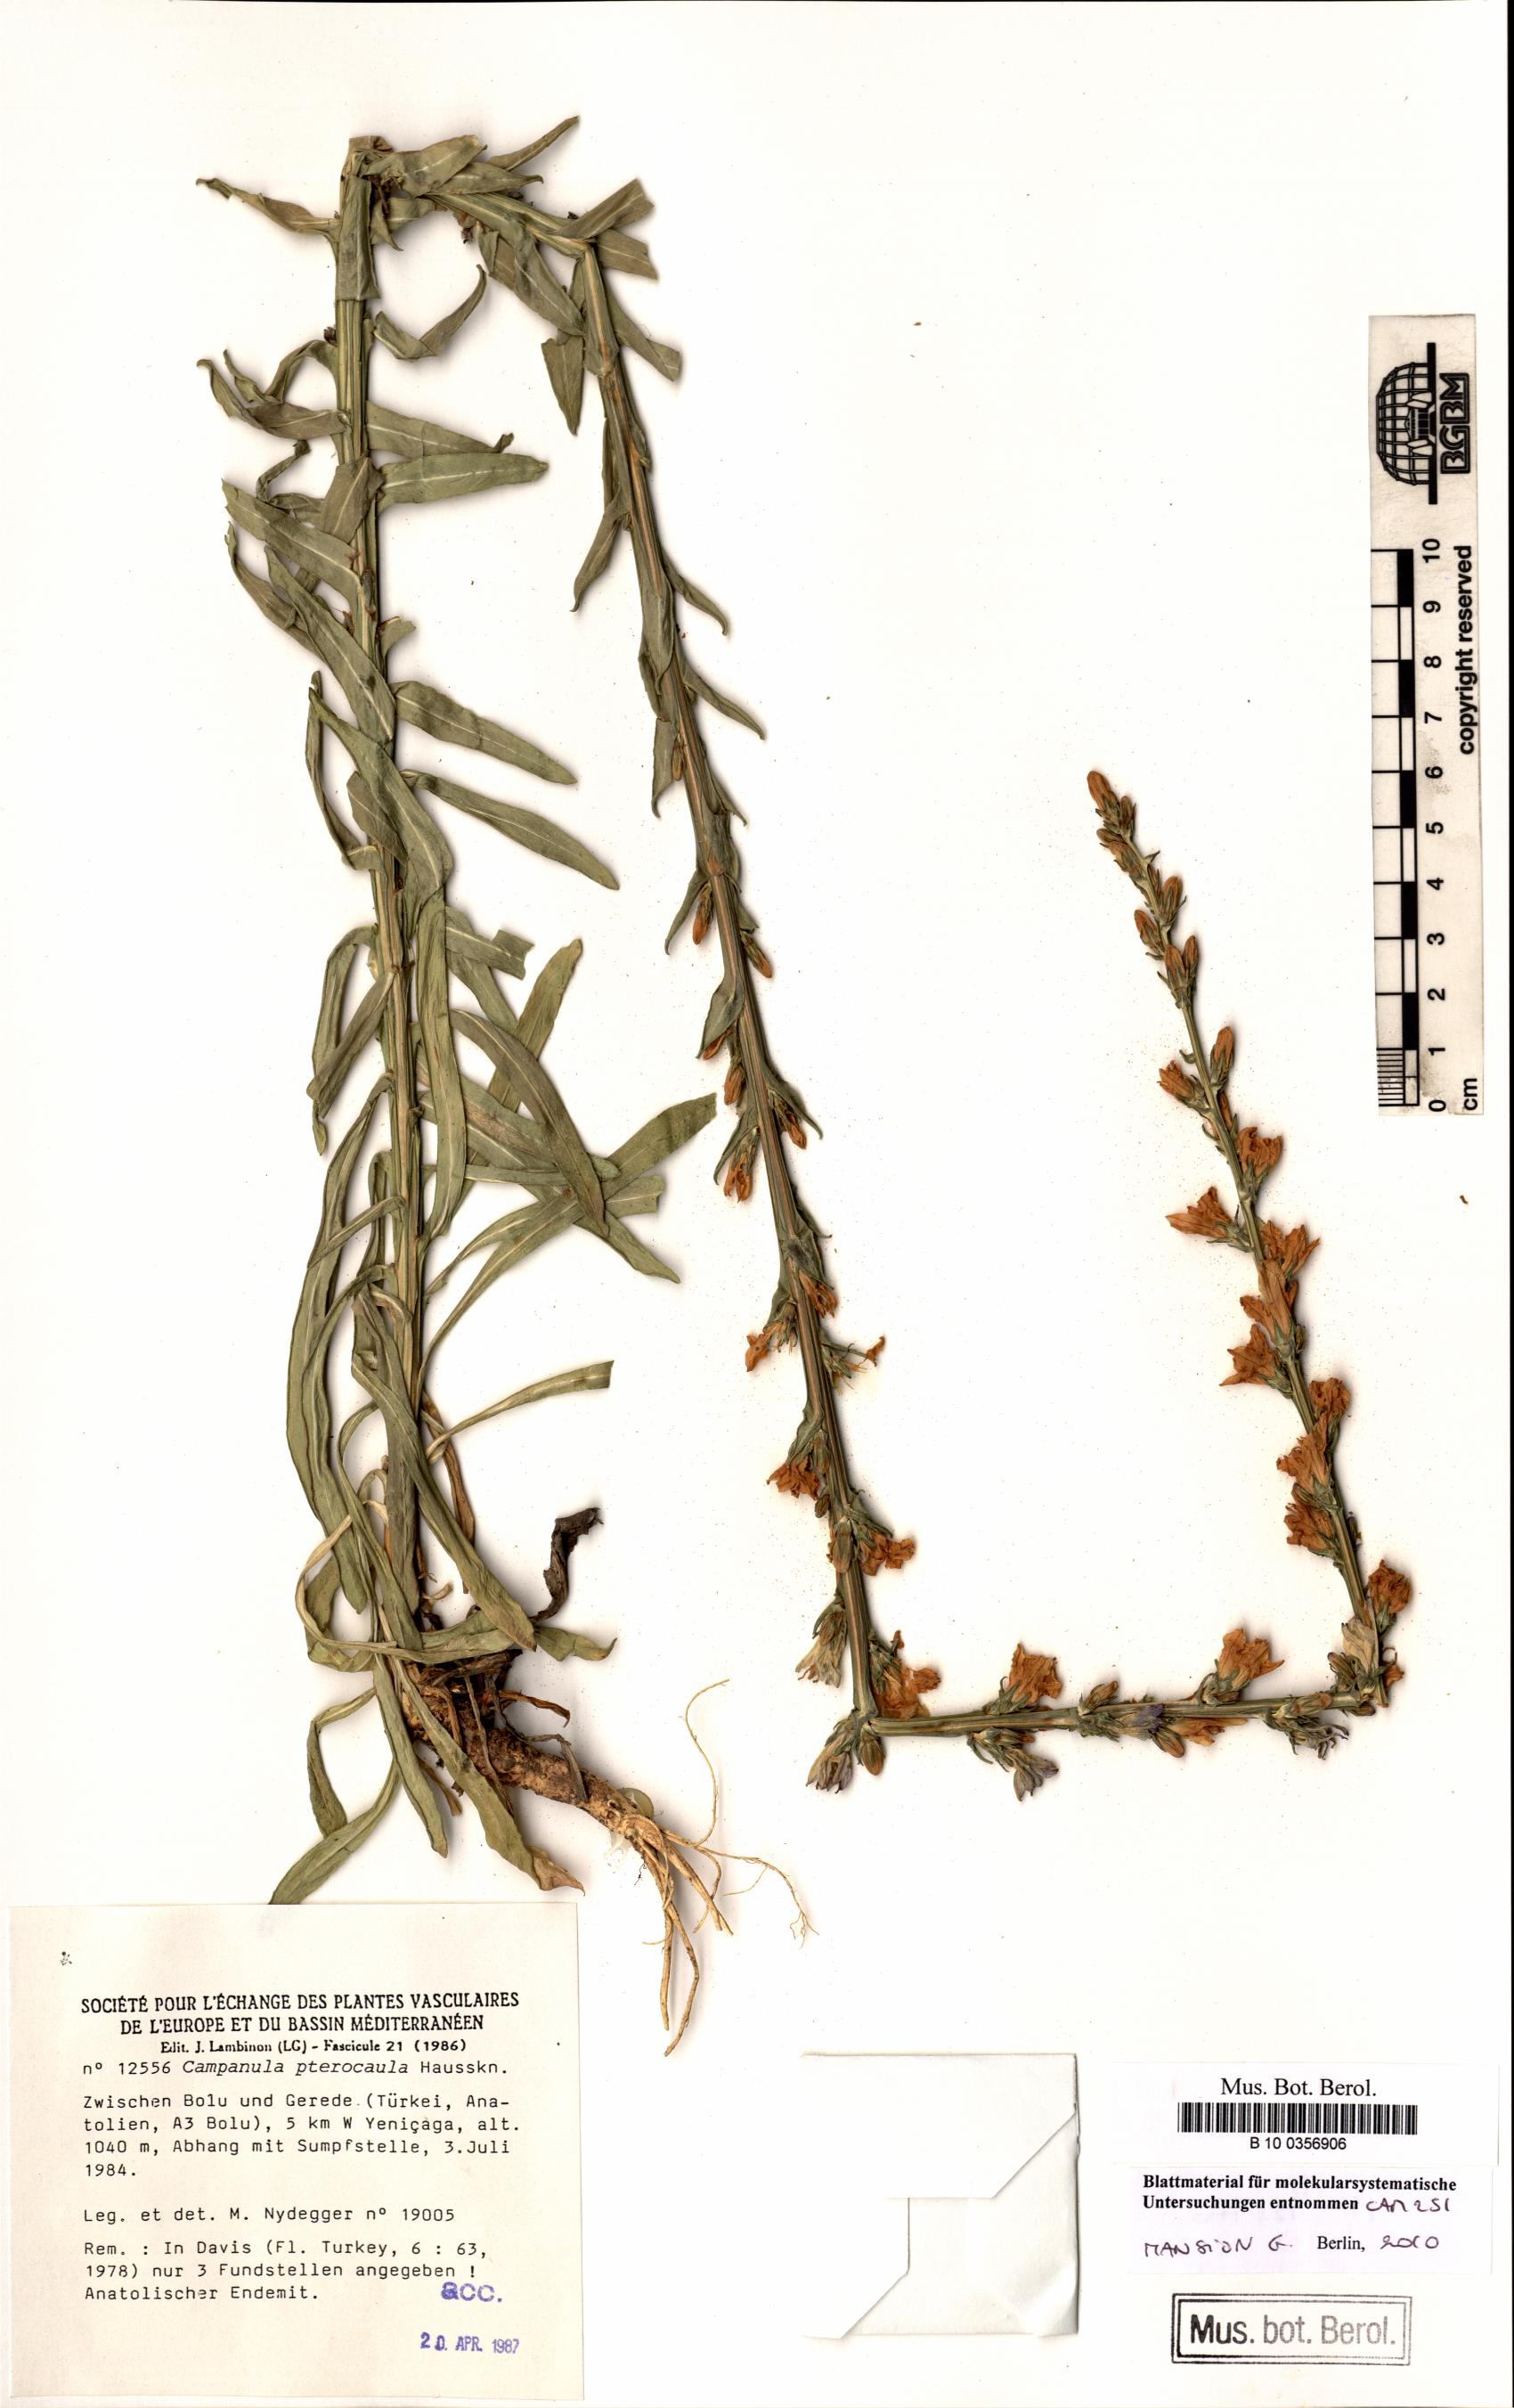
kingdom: Plantae
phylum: Tracheophyta
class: Magnoliopsida
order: Asterales
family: Campanulaceae
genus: Campanula
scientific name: Campanula pterocaula
